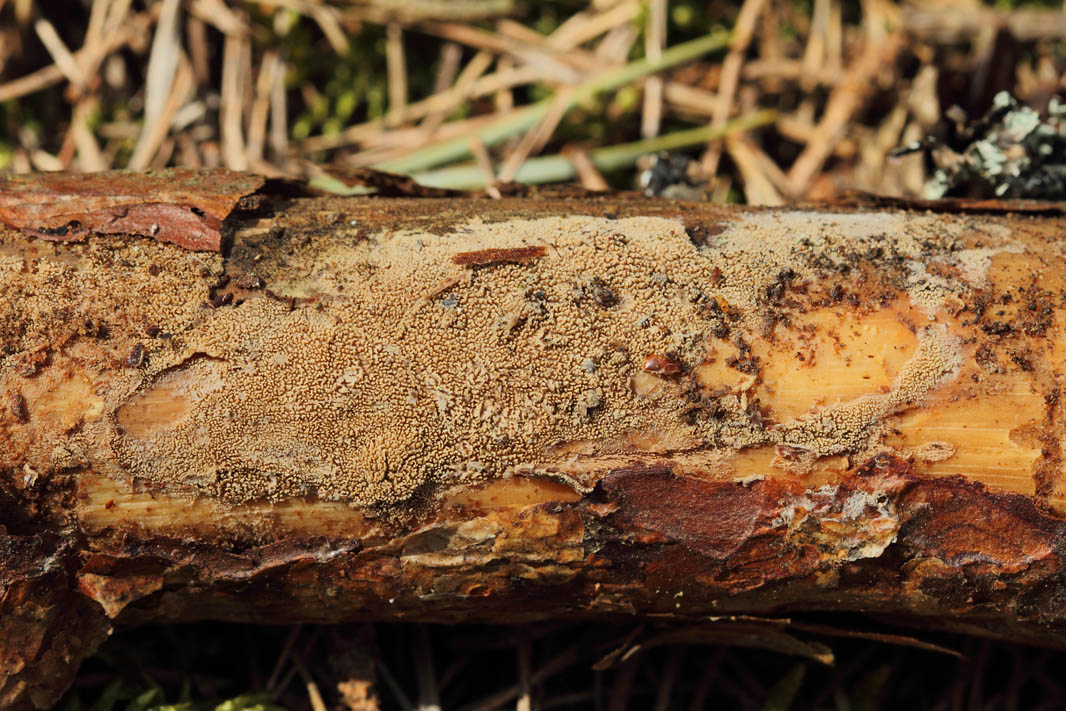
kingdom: Fungi
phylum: Basidiomycota
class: Agaricomycetes
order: Hymenochaetales
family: Repetobasidiaceae
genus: Skvortzovia
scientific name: Skvortzovia pinicola
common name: pigget vokstand
